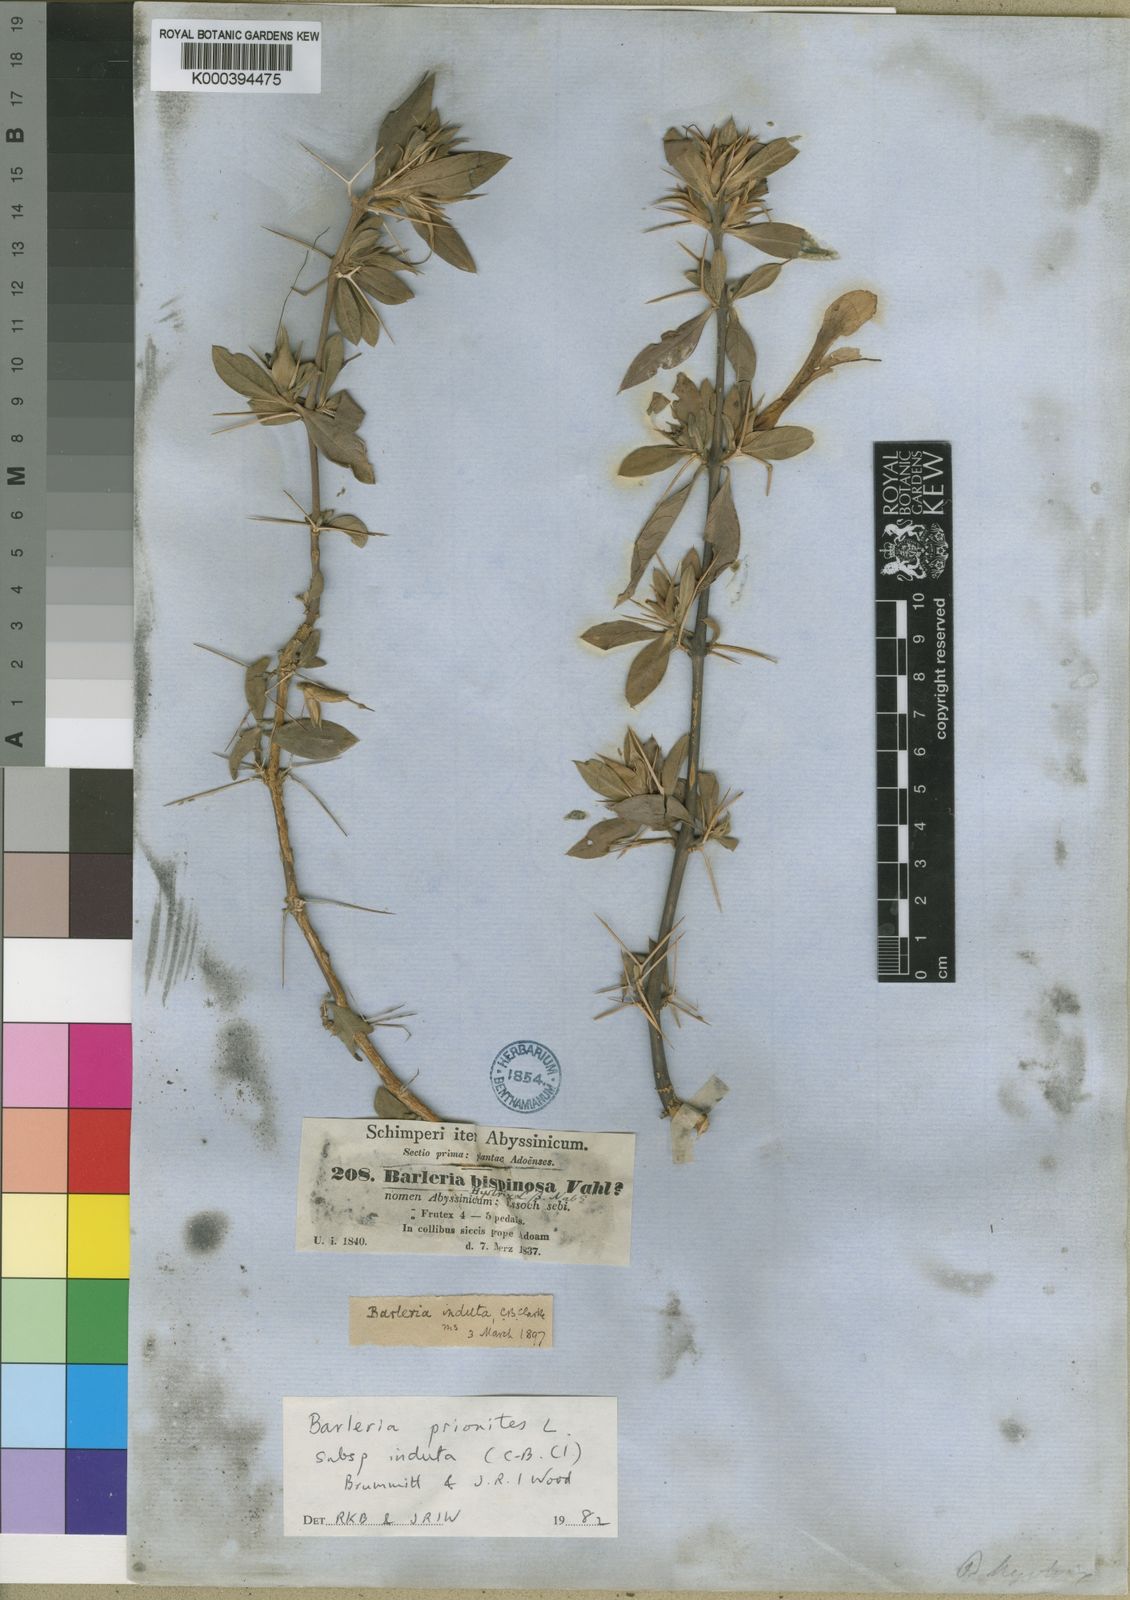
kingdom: Plantae
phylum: Tracheophyta
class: Magnoliopsida
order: Lamiales
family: Acanthaceae
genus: Barleria
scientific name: Barleria prionitis
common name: Barleria
